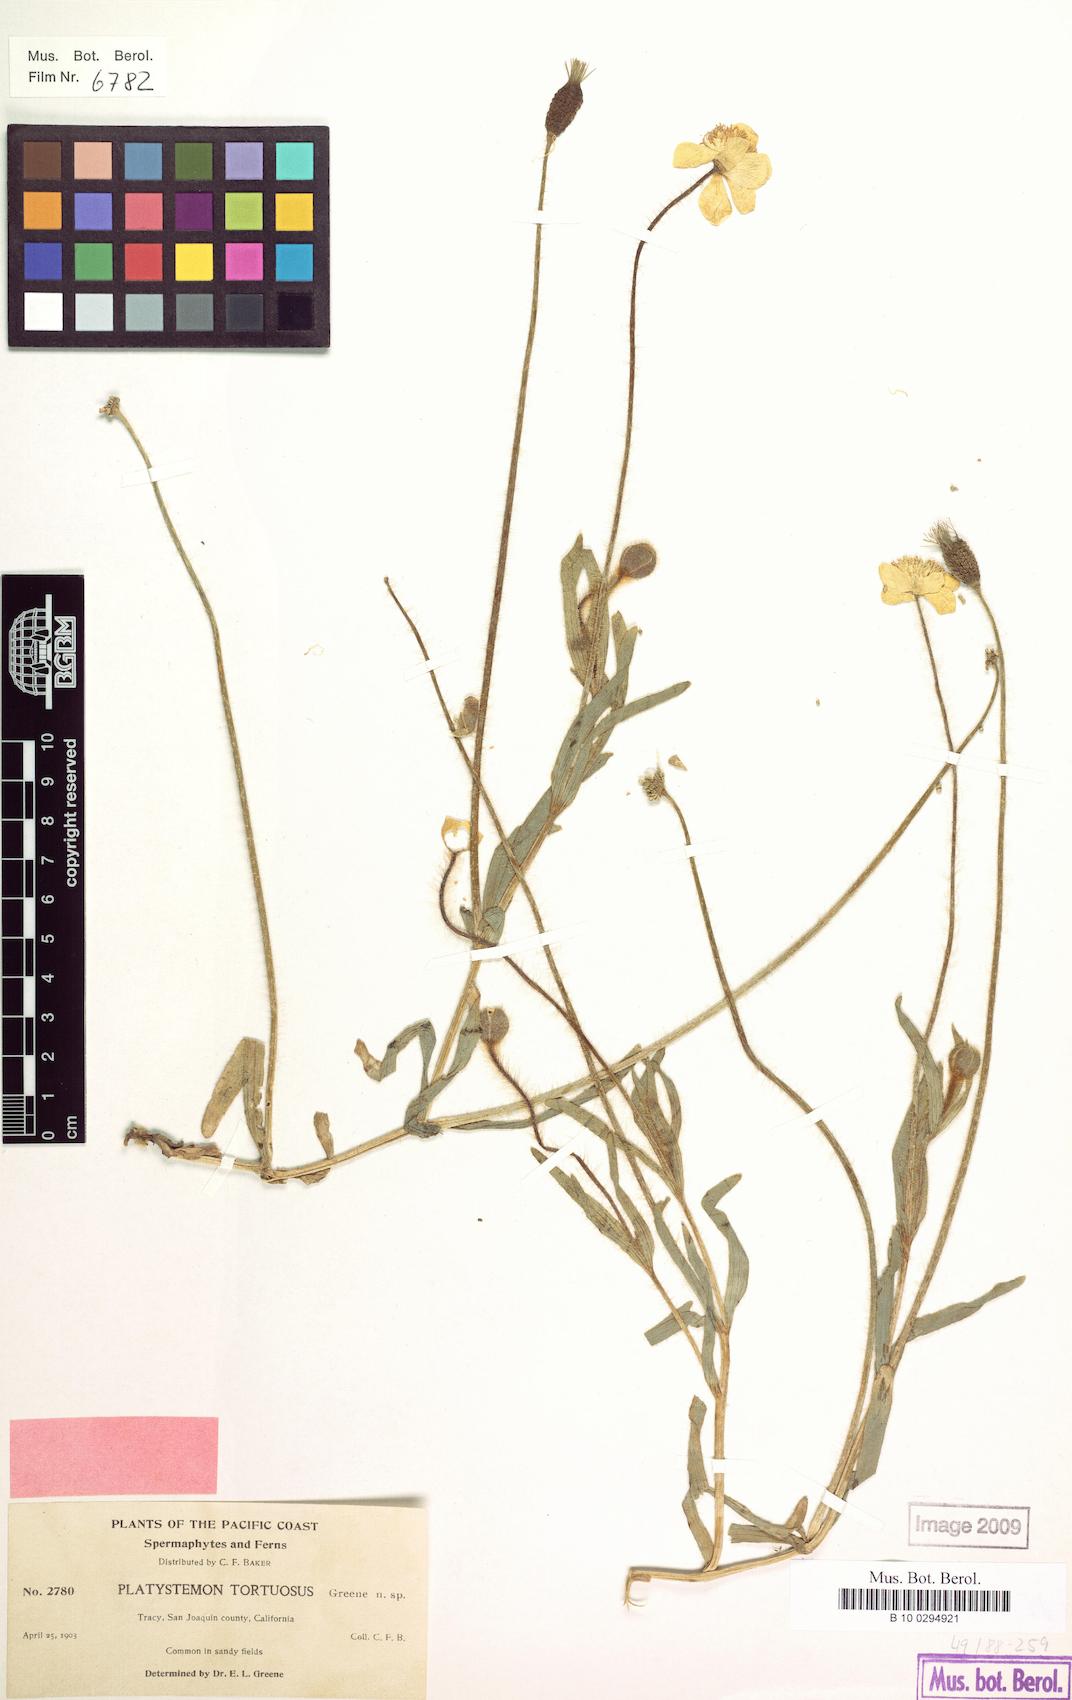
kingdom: Plantae
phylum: Tracheophyta
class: Magnoliopsida
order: Ranunculales
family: Papaveraceae
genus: Platystemon
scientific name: Platystemon californicus
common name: Cream-cups
